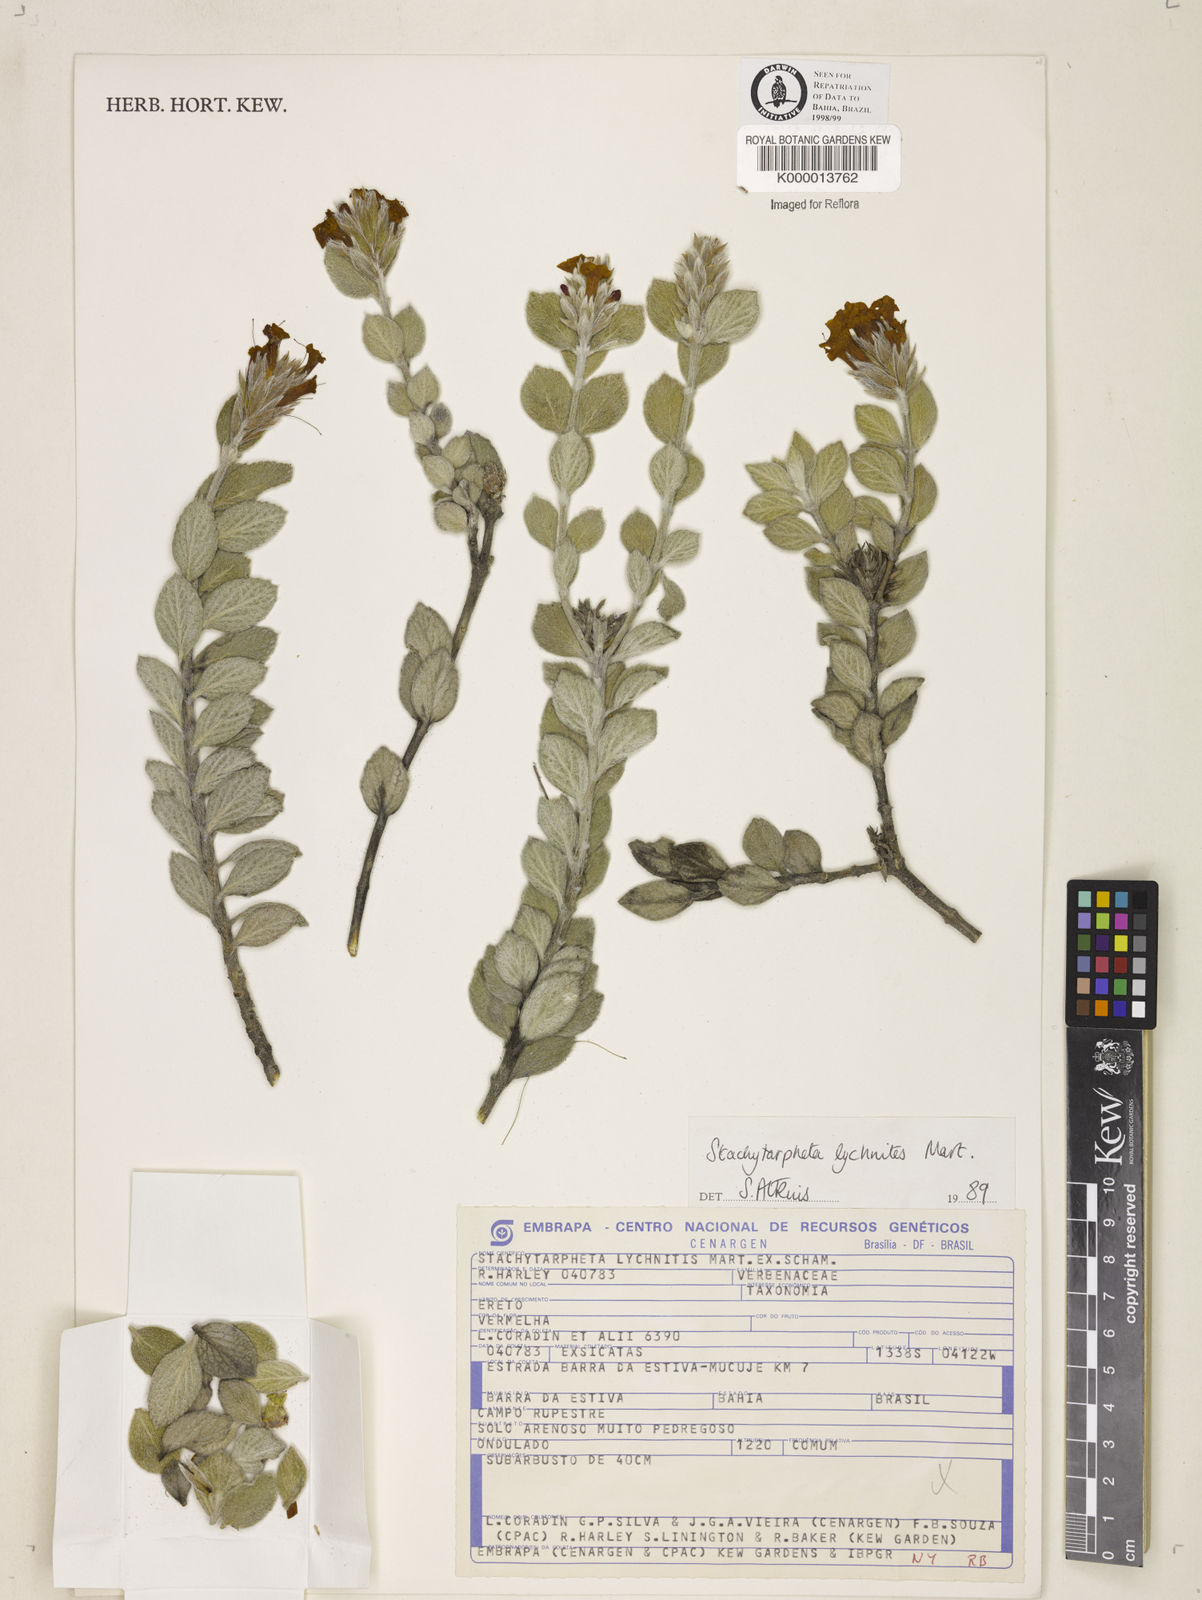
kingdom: Plantae
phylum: Tracheophyta
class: Magnoliopsida
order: Lamiales
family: Verbenaceae
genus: Stachytarpheta
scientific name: Stachytarpheta
